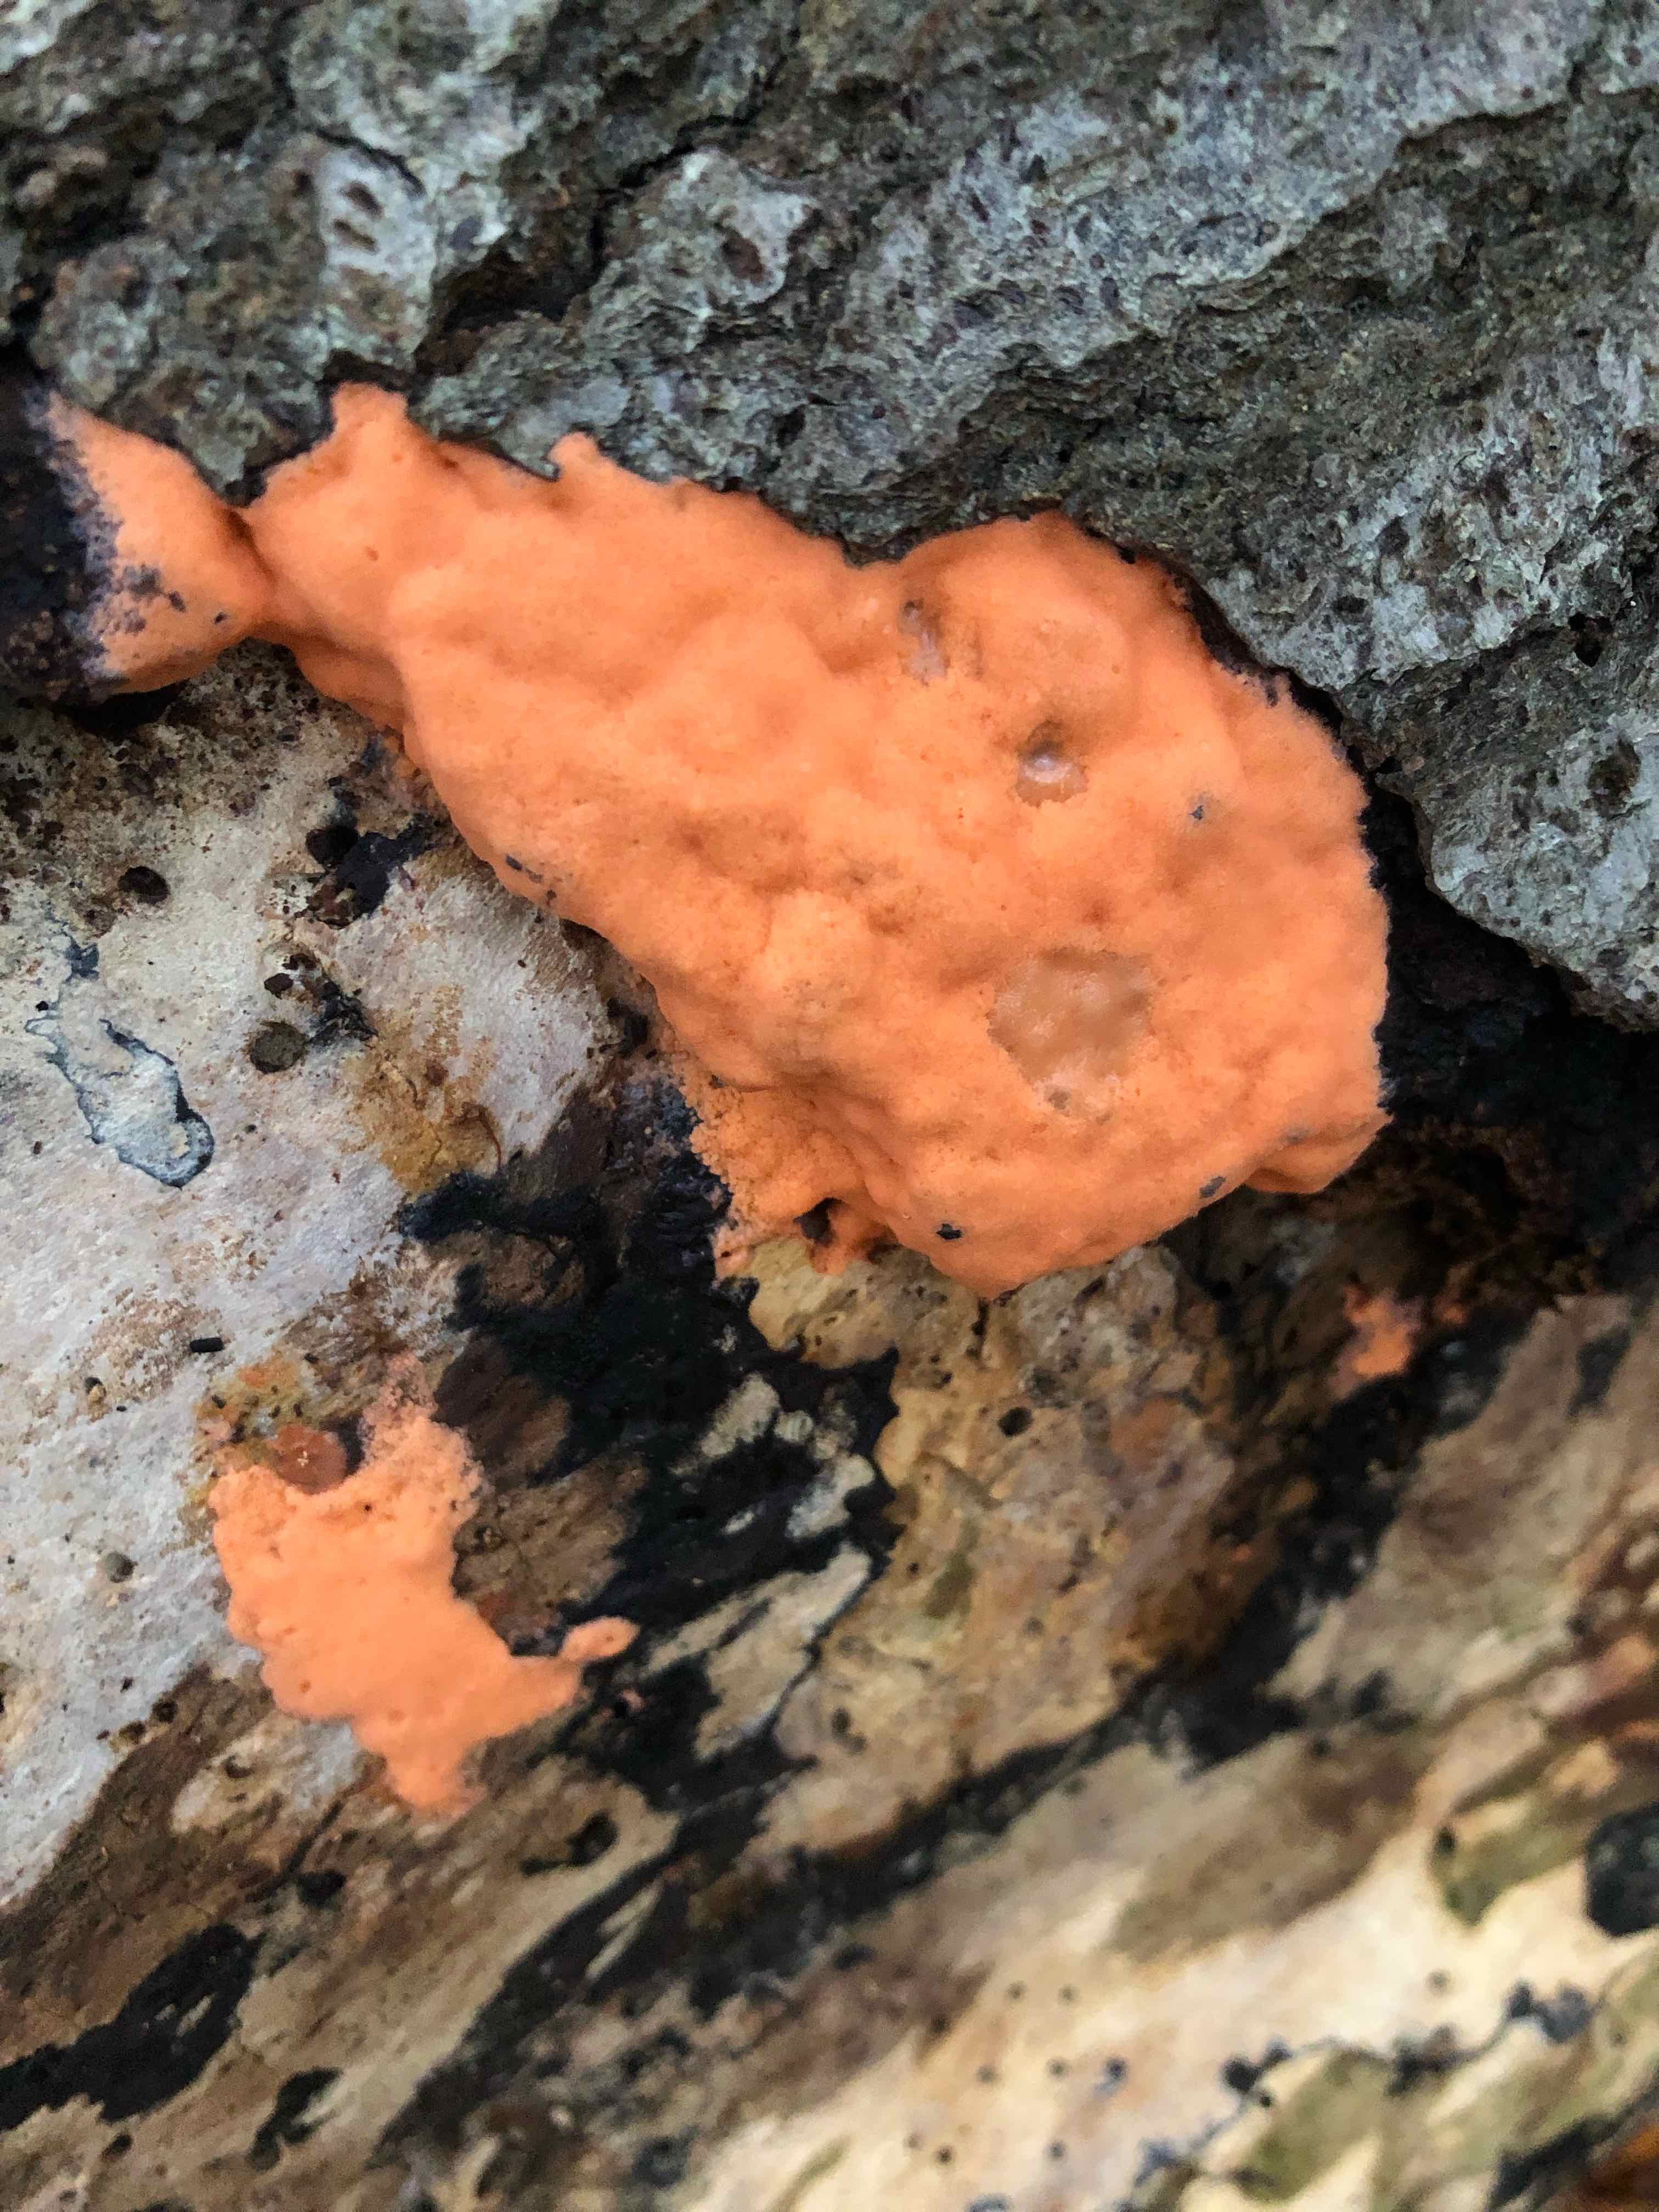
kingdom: Protozoa
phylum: Mycetozoa
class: Myxomycetes
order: Trichiales
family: Dictydiaethaliaceae
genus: Dictydiaethalium
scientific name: Dictydiaethalium plumbeum
